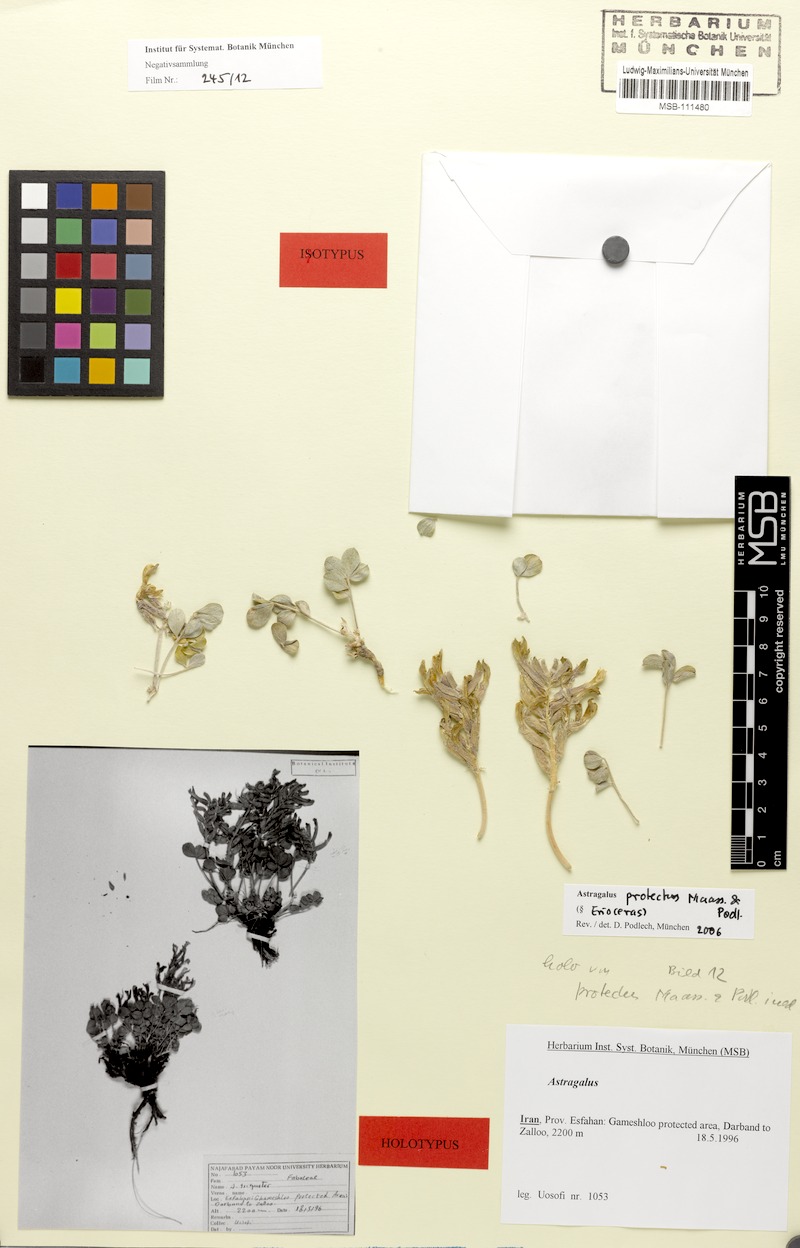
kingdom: Plantae
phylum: Tracheophyta
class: Magnoliopsida
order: Fabales
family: Fabaceae
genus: Astragalus
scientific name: Astragalus protectus
